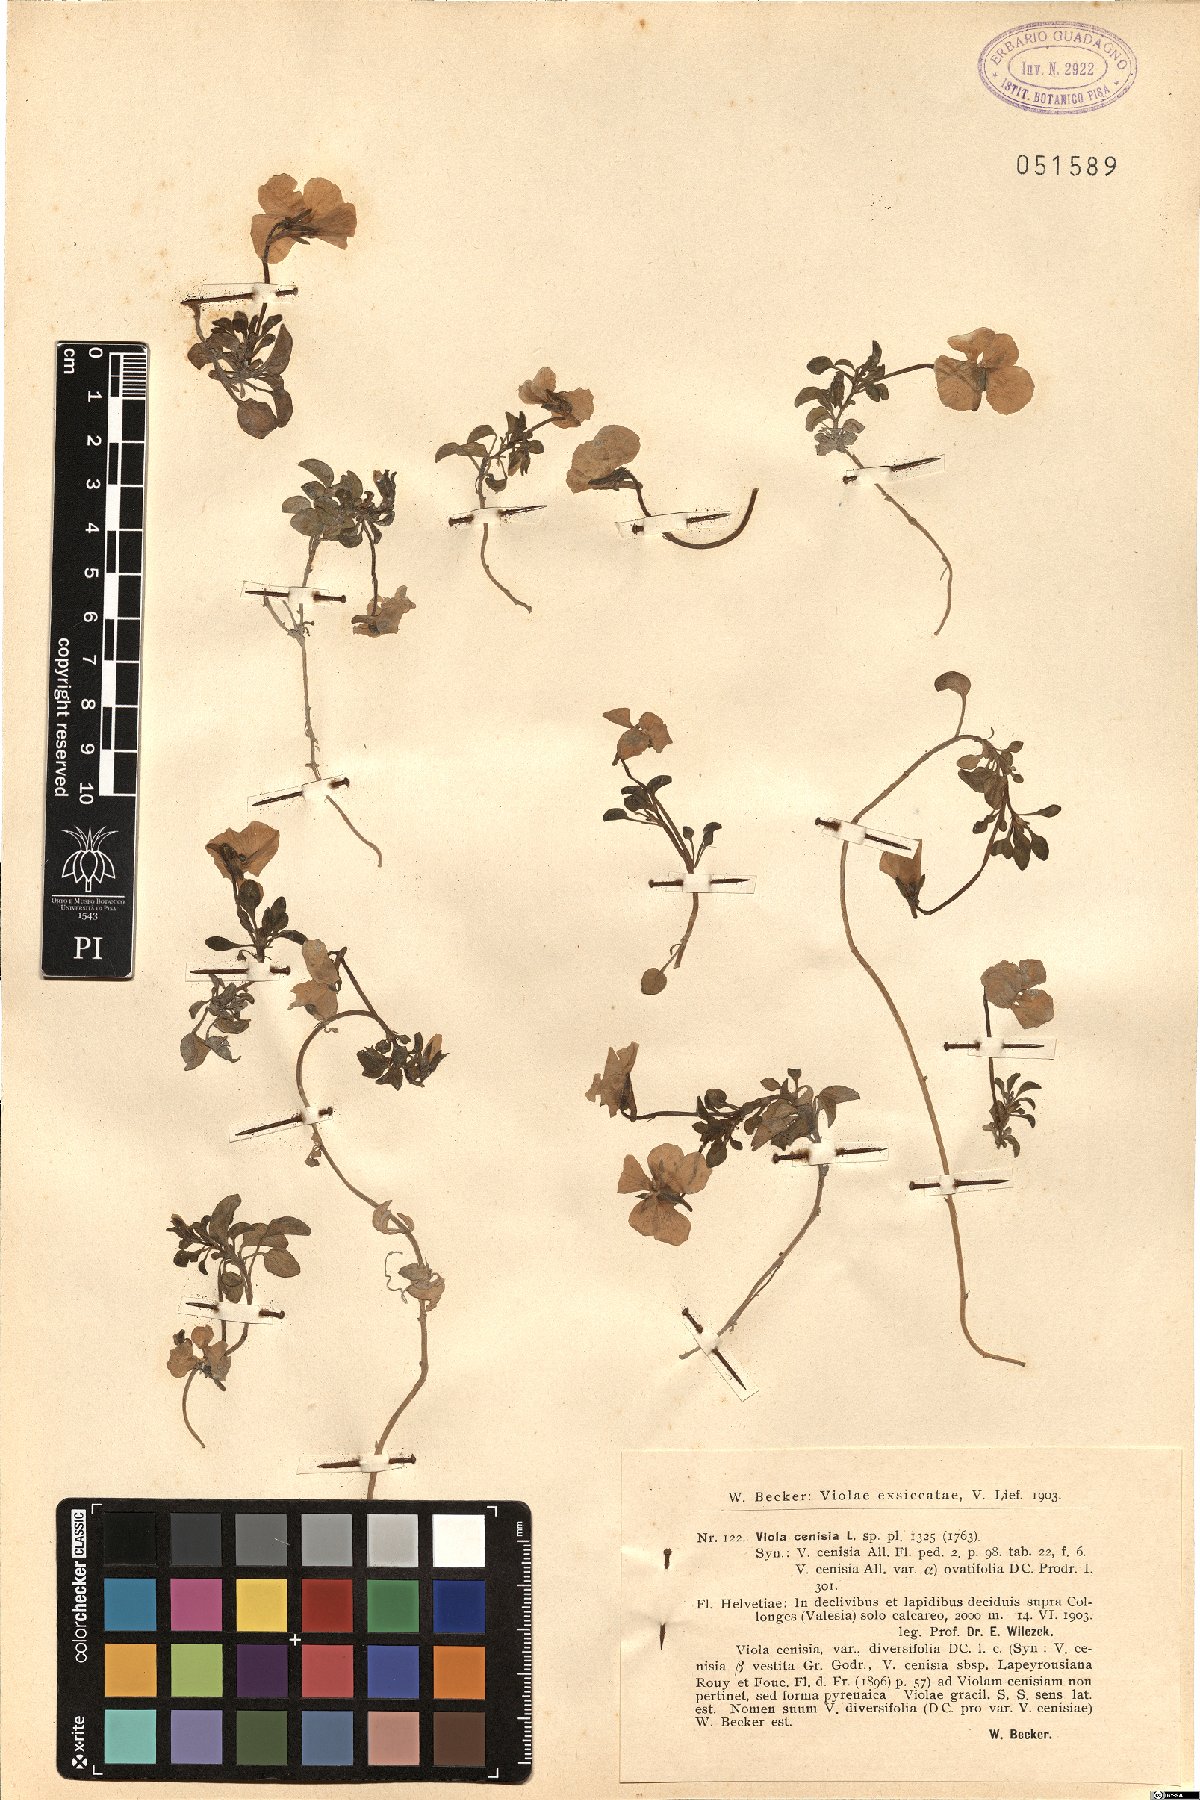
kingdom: Plantae
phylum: Tracheophyta
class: Magnoliopsida
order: Malpighiales
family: Violaceae
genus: Viola
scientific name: Viola cenisia
